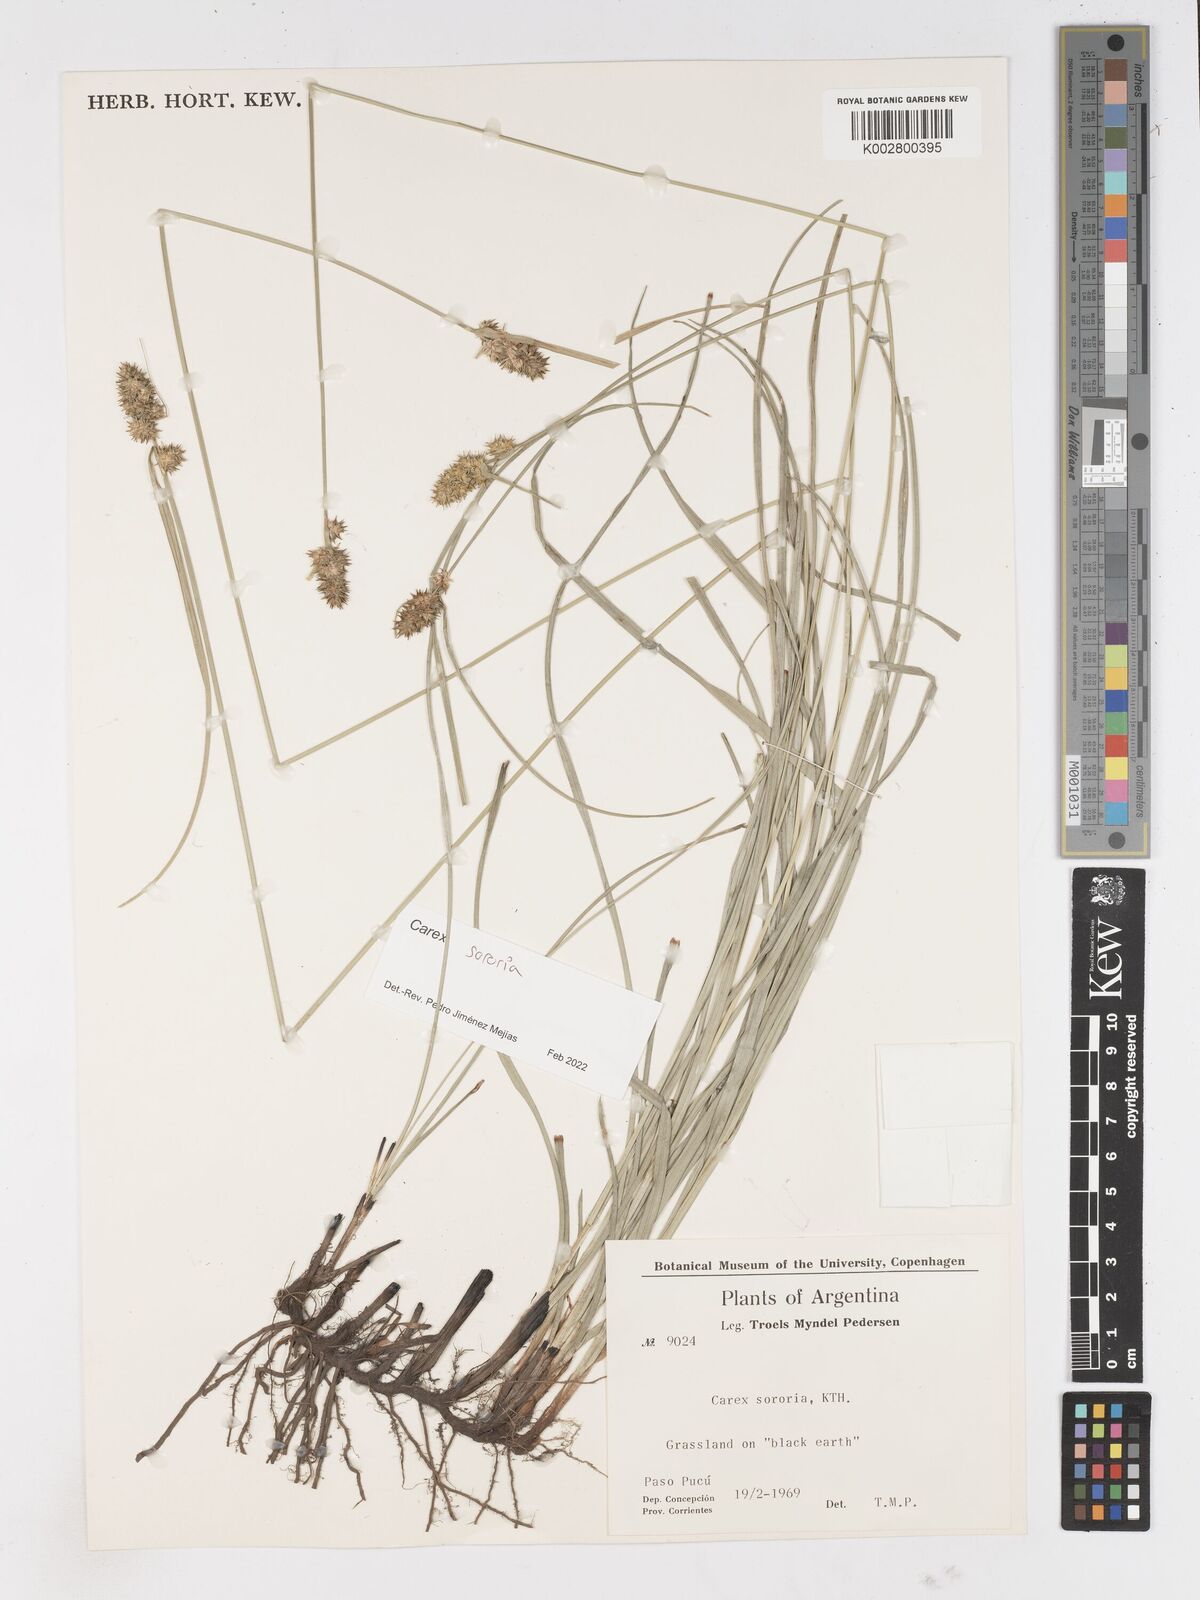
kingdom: Plantae
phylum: Tracheophyta
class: Liliopsida
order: Poales
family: Cyperaceae
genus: Carex
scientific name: Carex sororia
